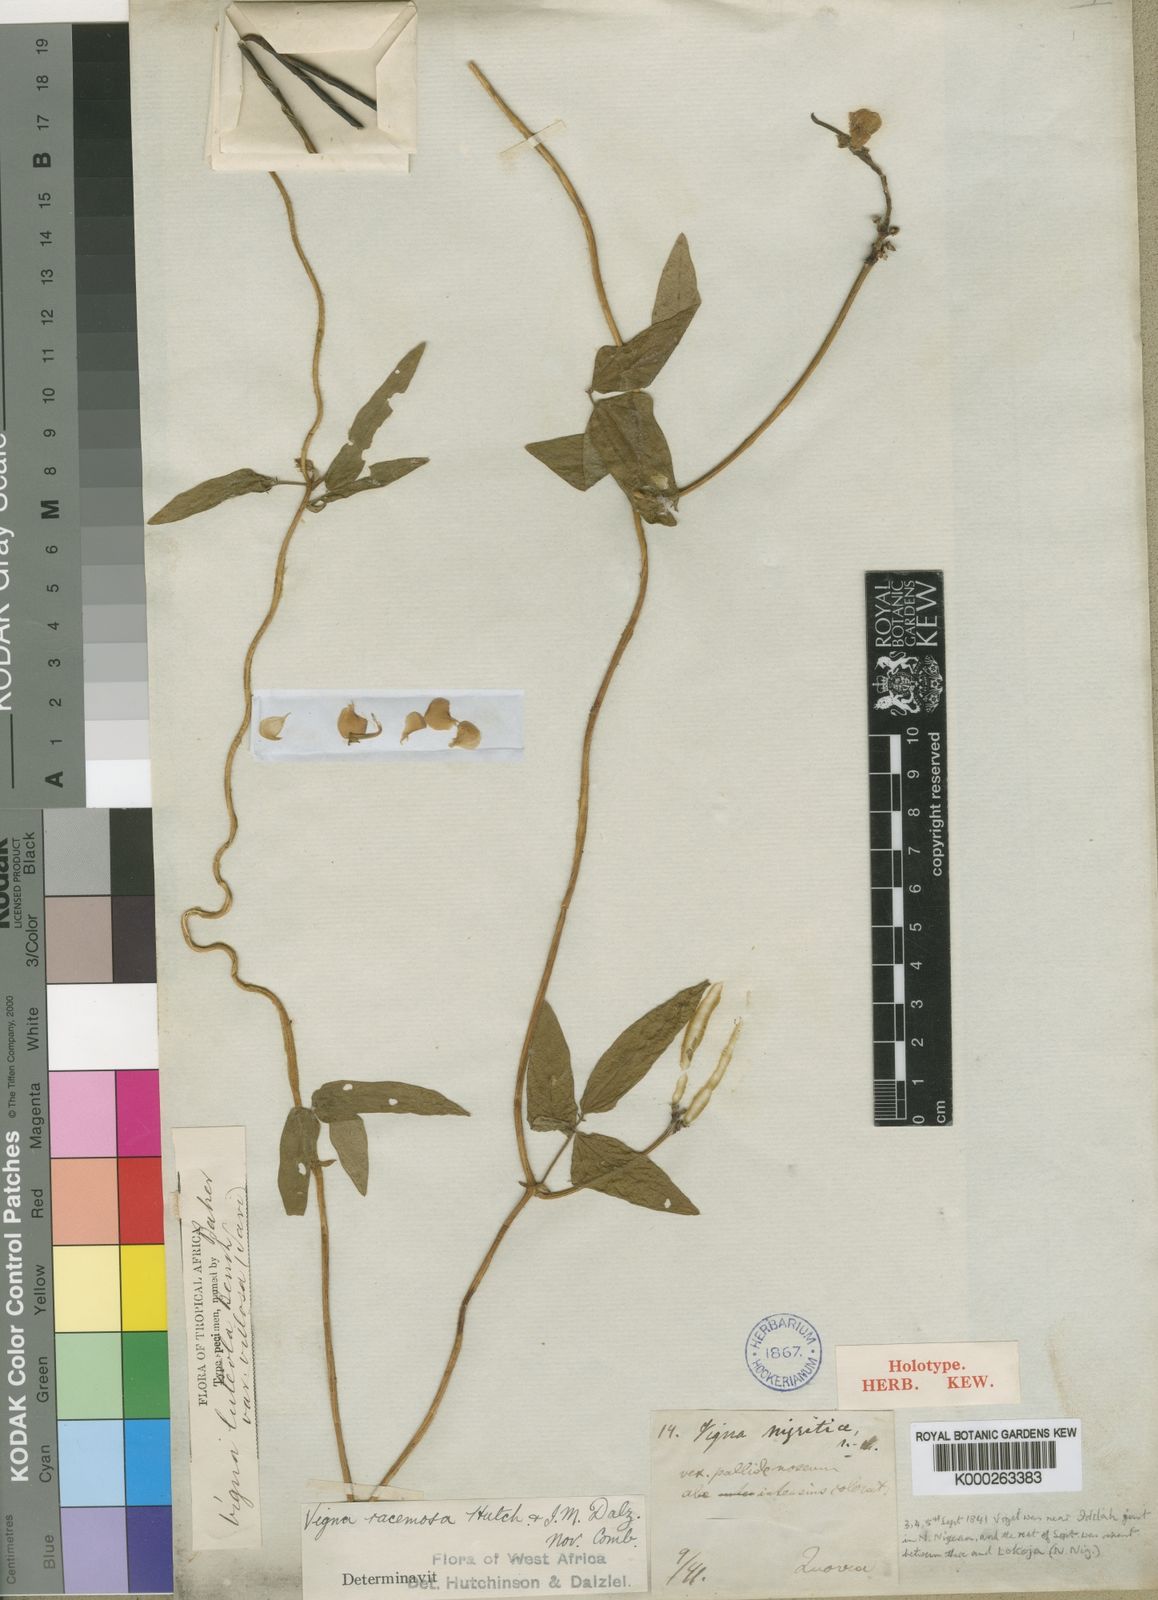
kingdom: Plantae
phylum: Tracheophyta
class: Magnoliopsida
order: Fabales
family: Fabaceae
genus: Vigna
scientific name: Vigna nigritia
